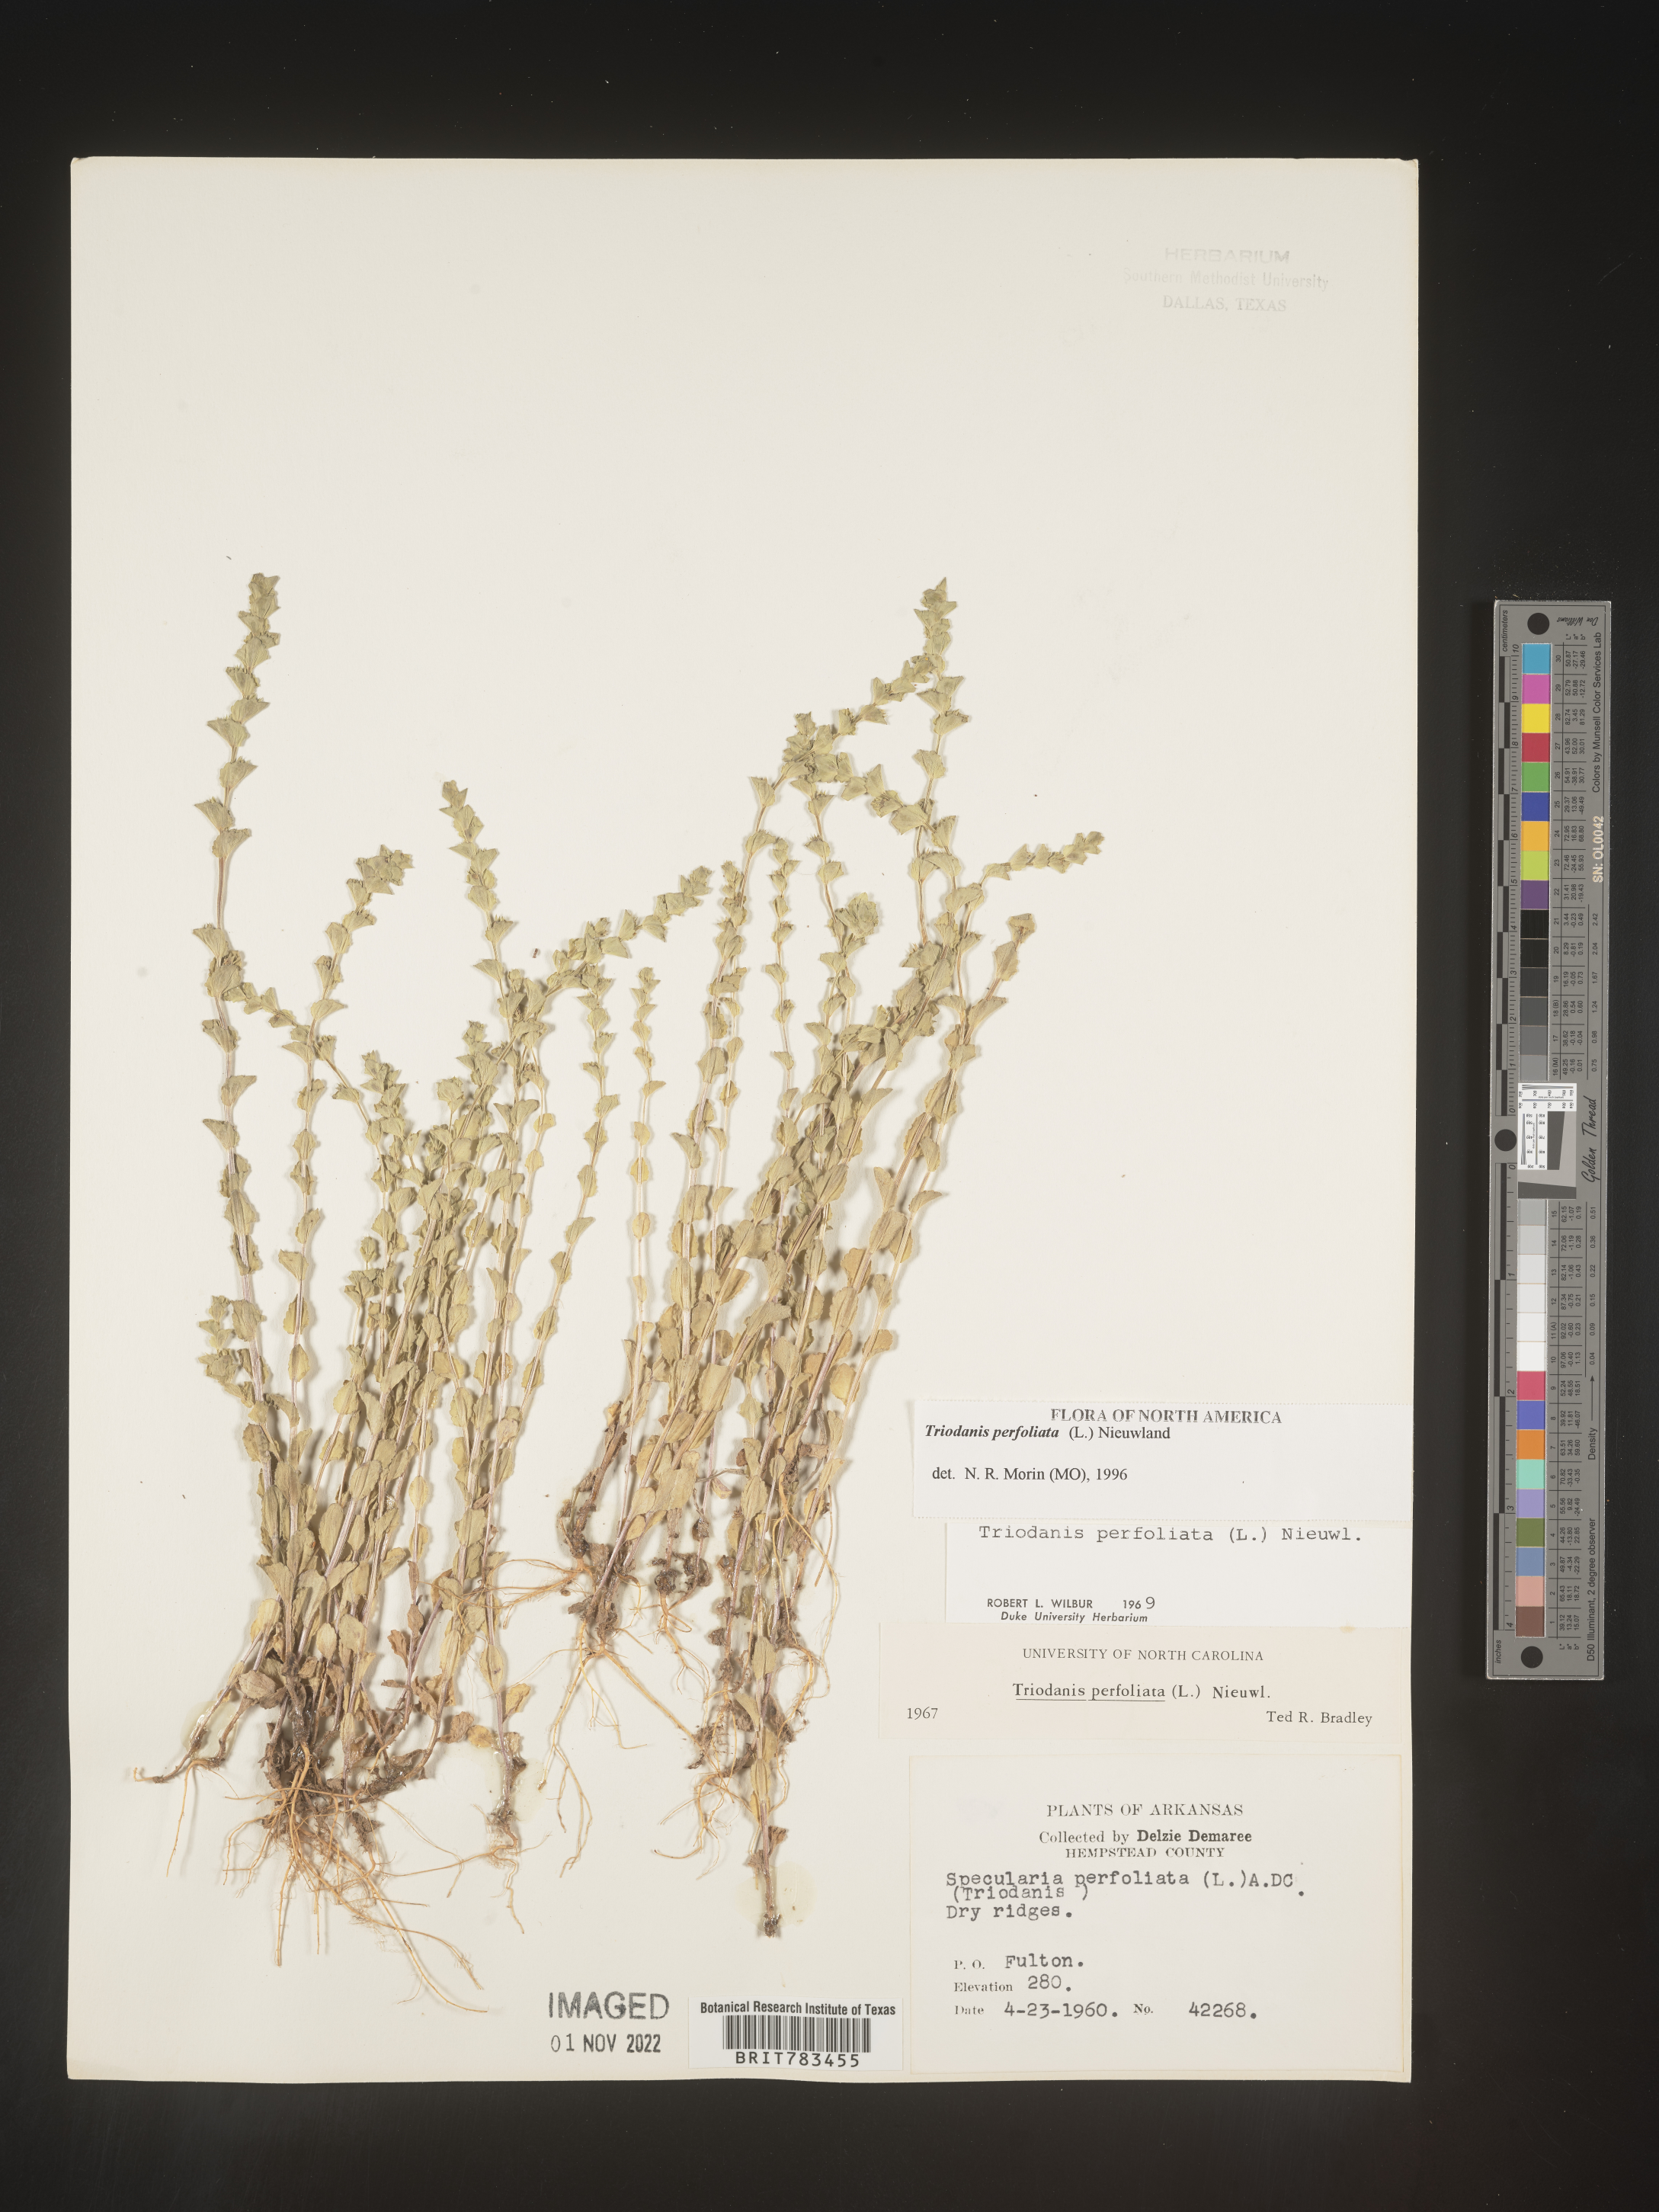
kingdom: Plantae
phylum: Tracheophyta
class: Magnoliopsida
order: Asterales
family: Campanulaceae
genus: Triodanis
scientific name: Triodanis perfoliata
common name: Clasping venus' looking-glass
